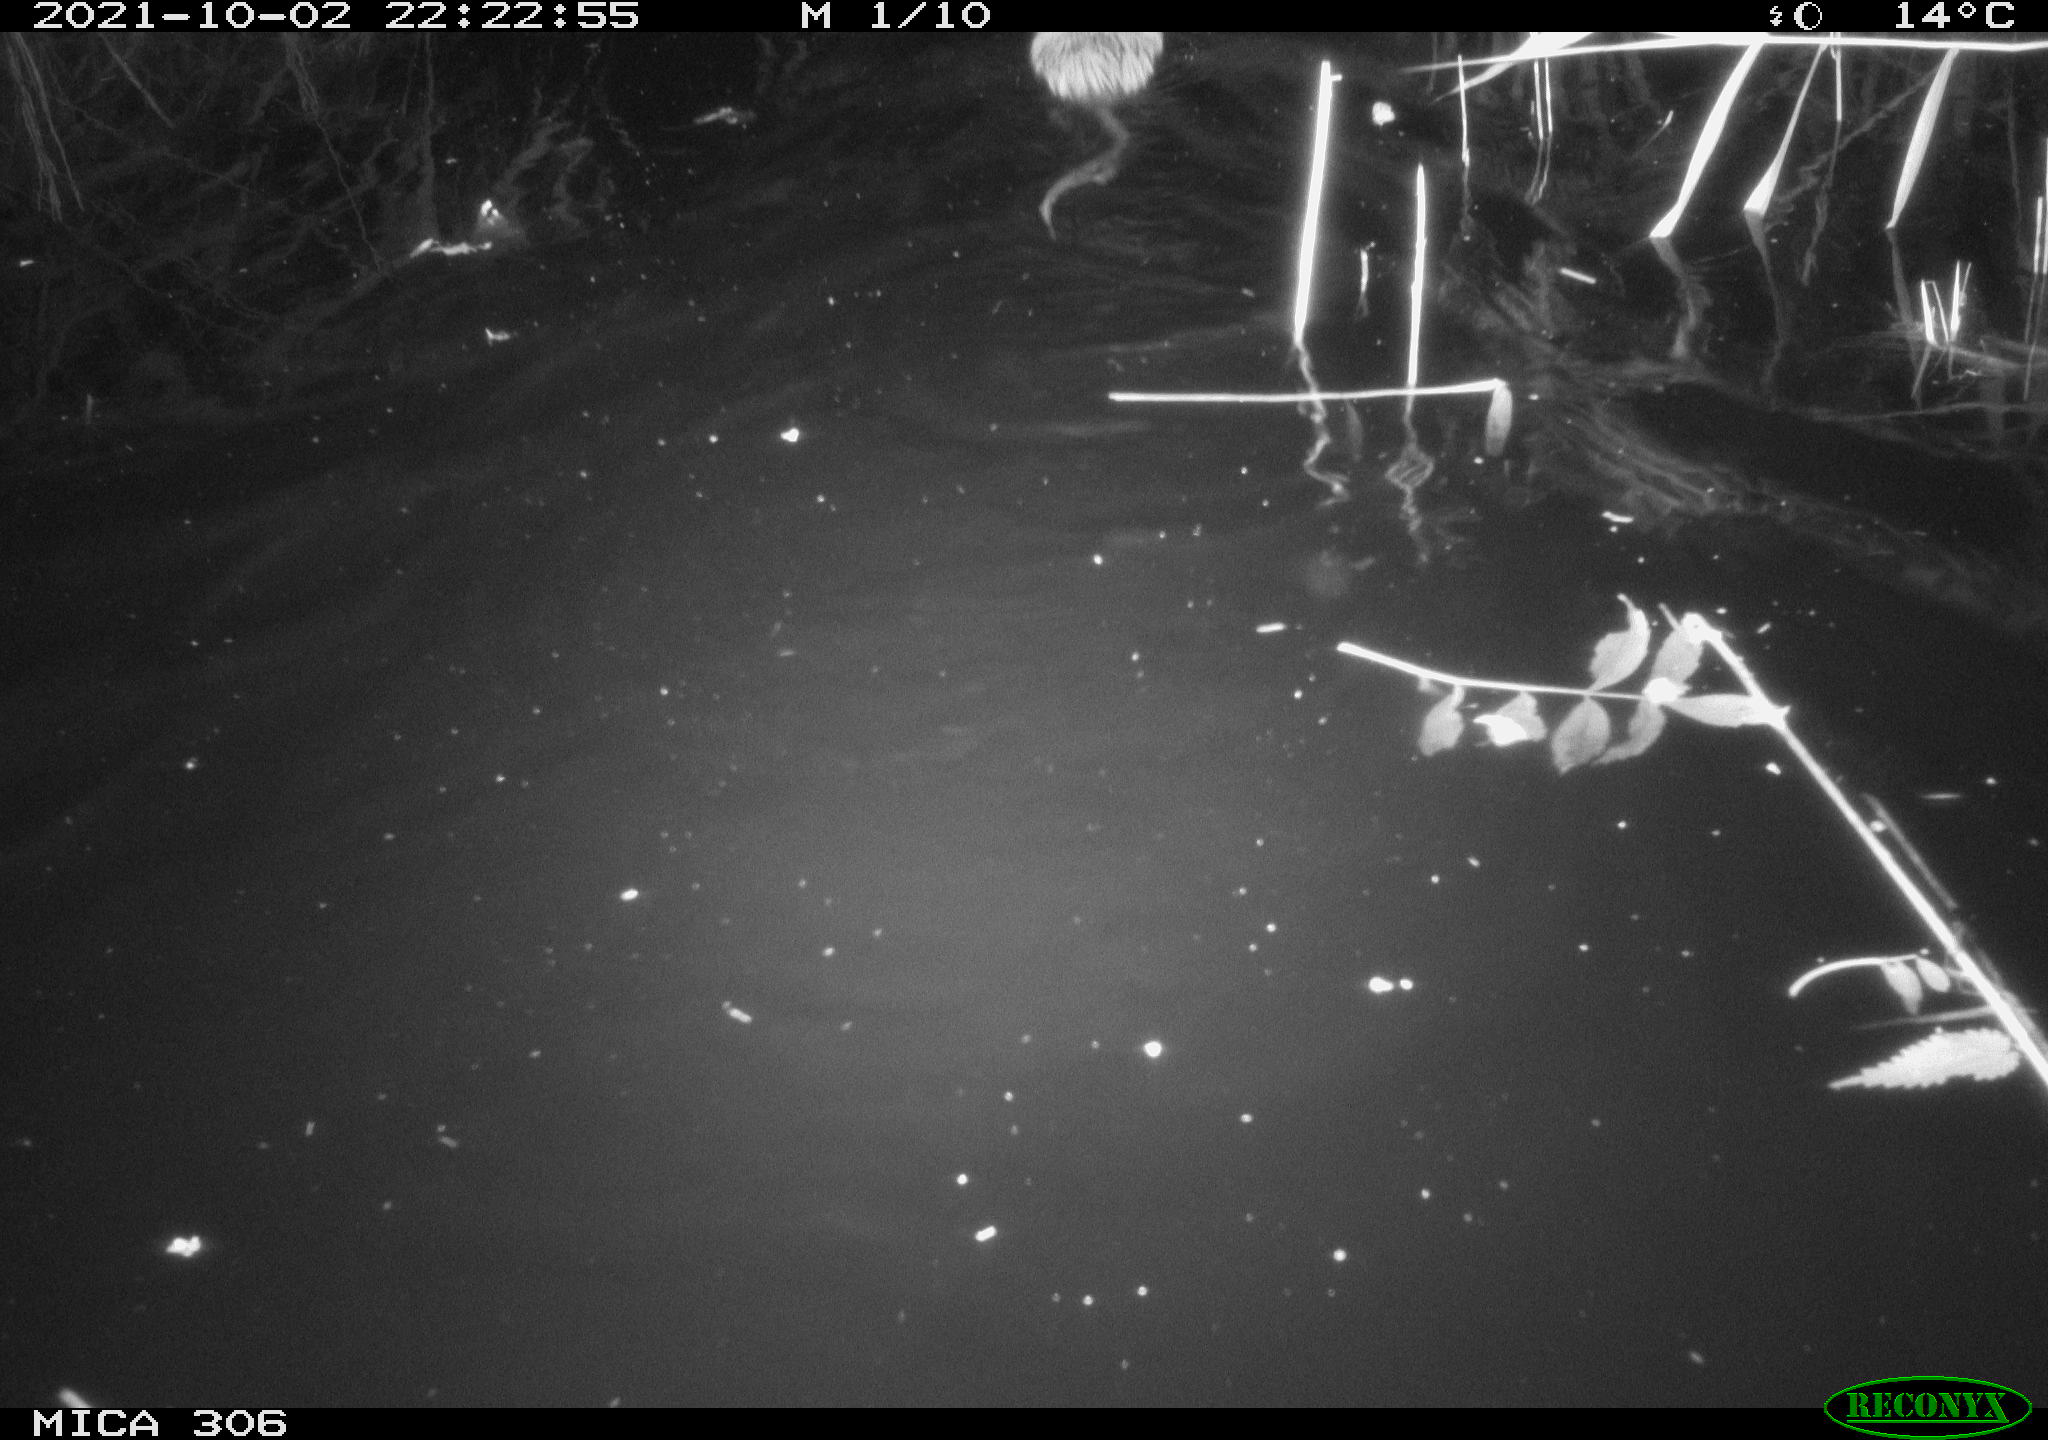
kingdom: Animalia
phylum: Chordata
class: Mammalia
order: Rodentia
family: Cricetidae
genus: Ondatra
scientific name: Ondatra zibethicus
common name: Muskrat
